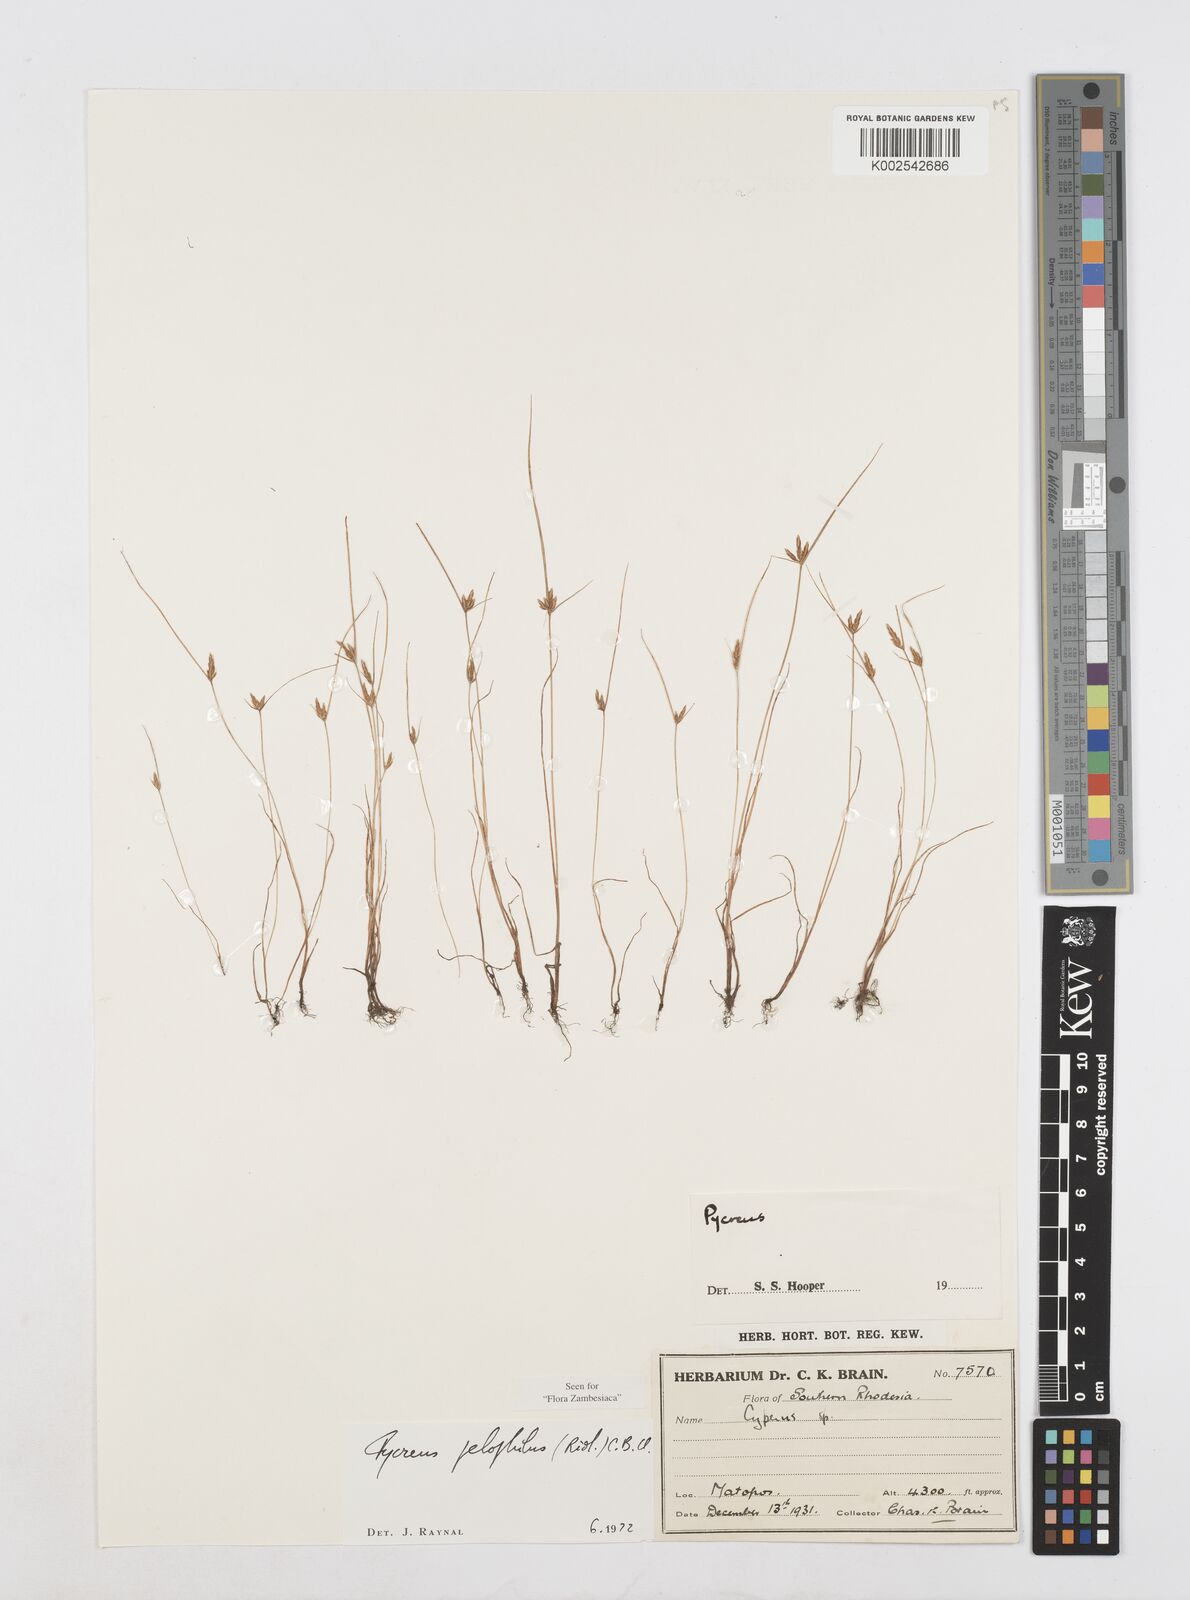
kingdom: Plantae
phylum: Tracheophyta
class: Liliopsida
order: Poales
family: Cyperaceae
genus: Cyperus
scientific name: Cyperus pelophilus
